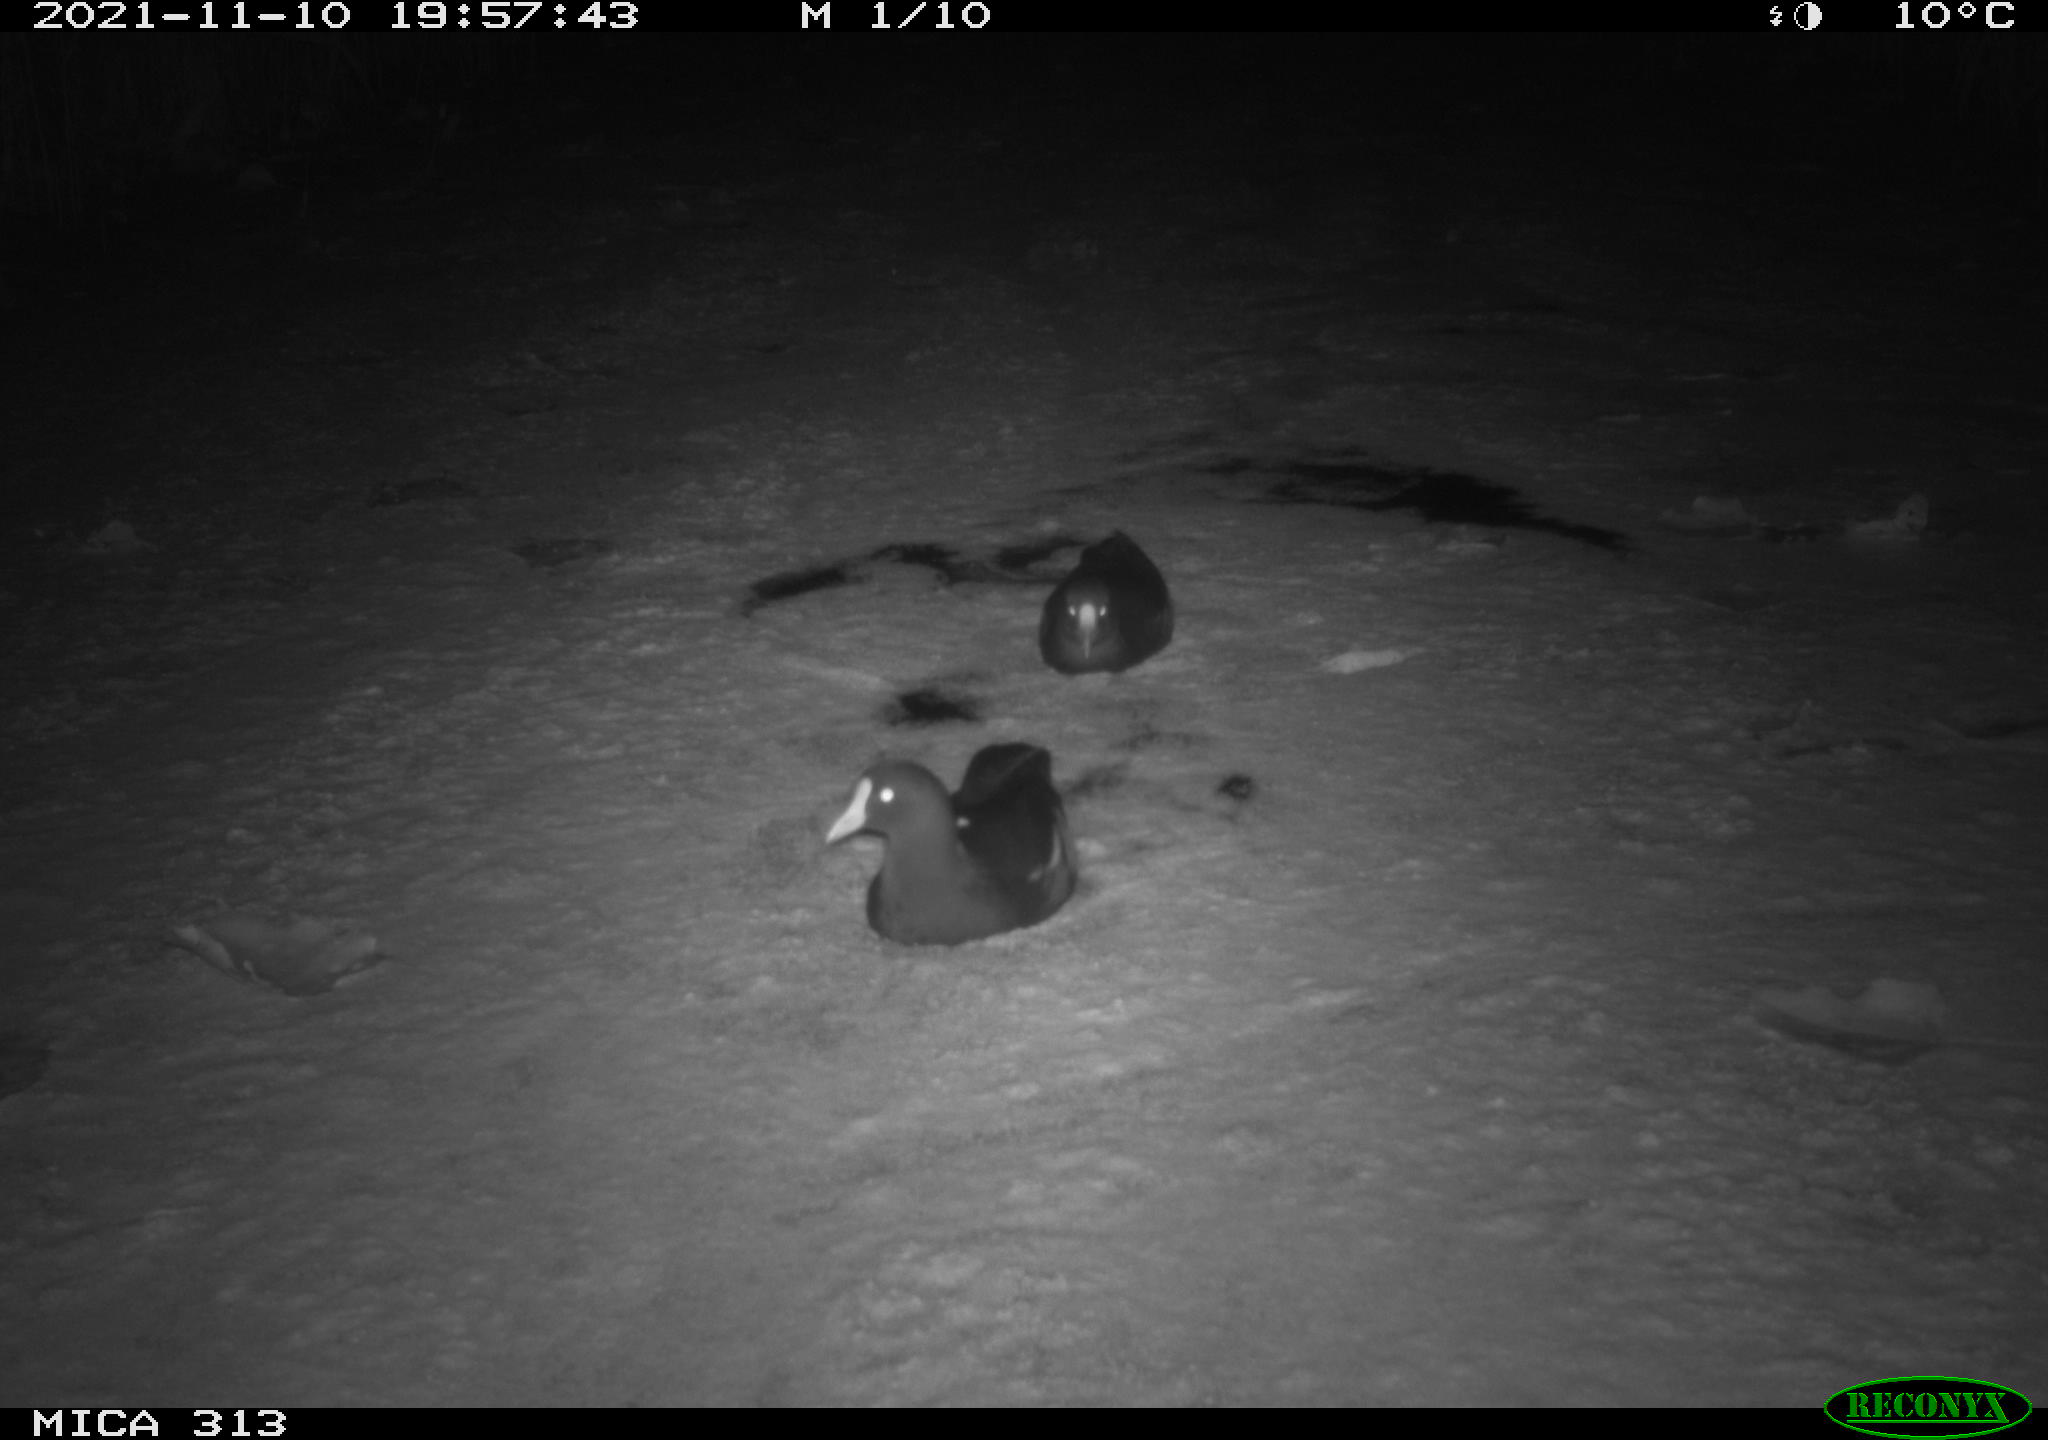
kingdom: Animalia
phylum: Chordata
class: Aves
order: Gruiformes
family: Rallidae
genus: Fulica
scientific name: Fulica atra
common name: Eurasian coot
